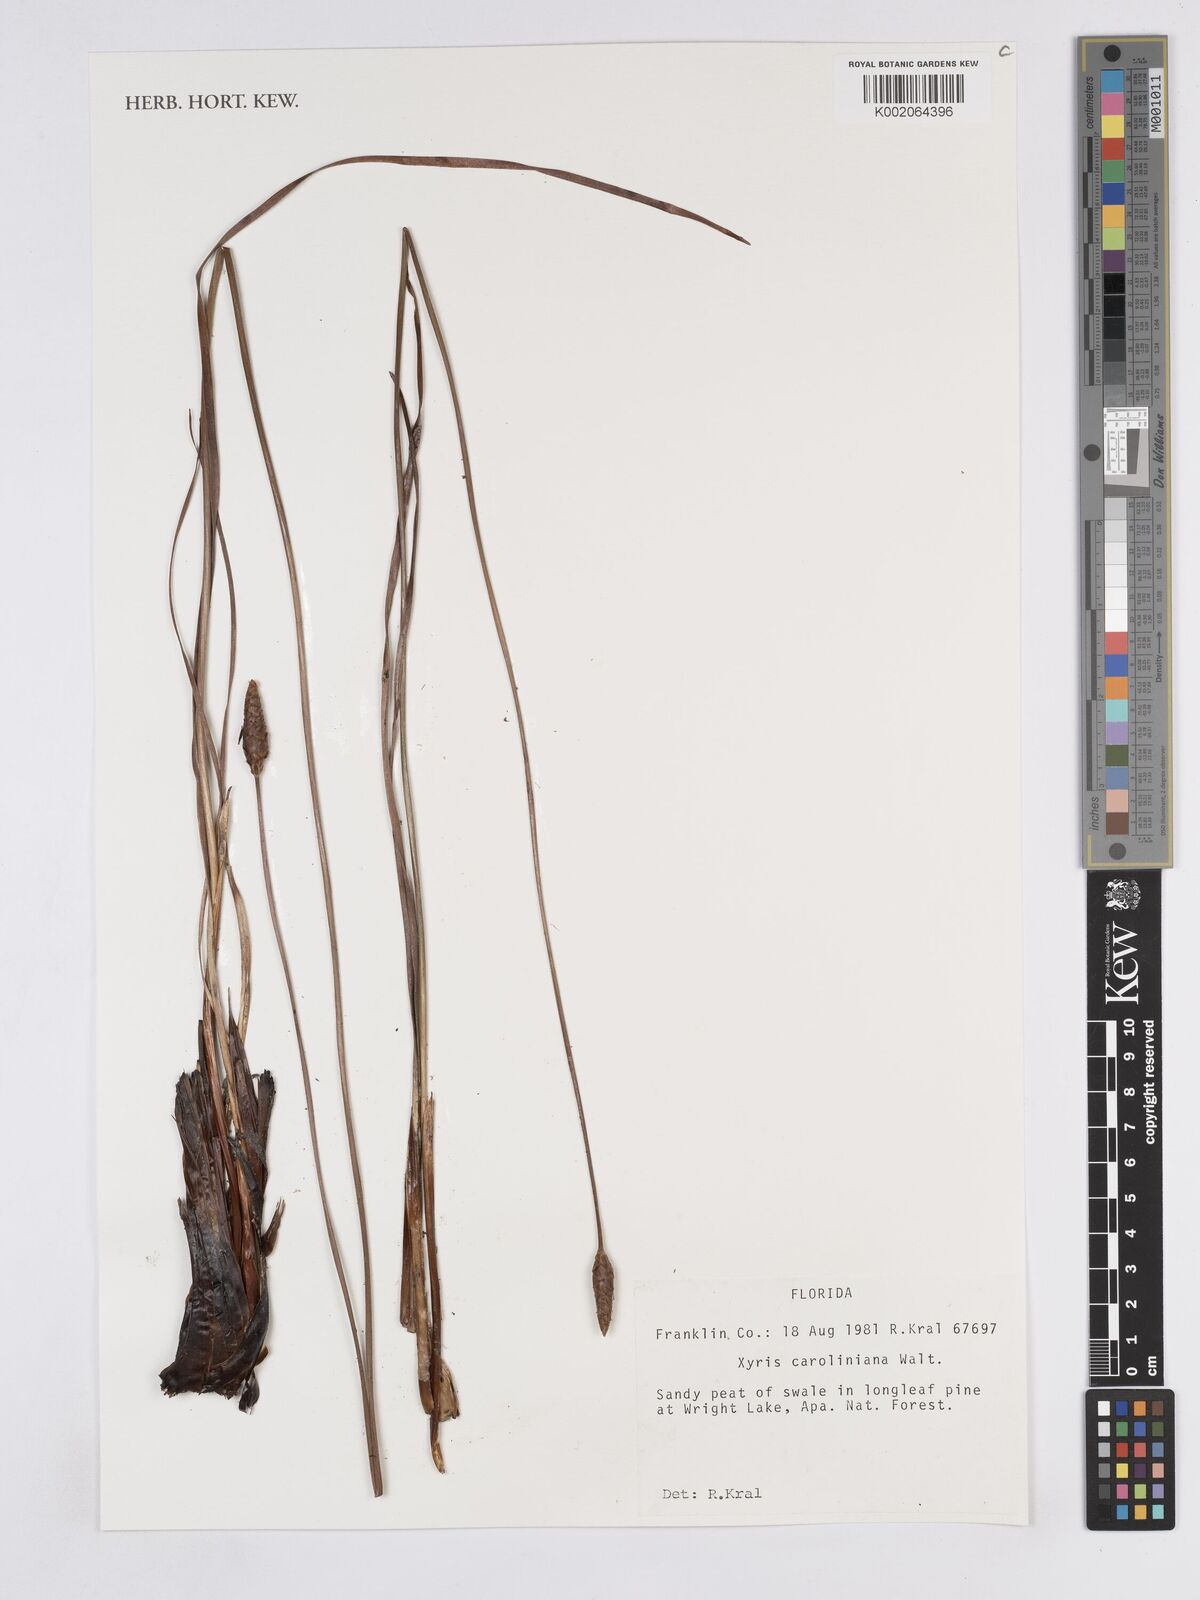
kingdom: Plantae
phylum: Tracheophyta
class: Liliopsida
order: Poales
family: Xyridaceae
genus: Xyris
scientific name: Xyris caroliniana
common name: Carolina yellow-eyed-grass
